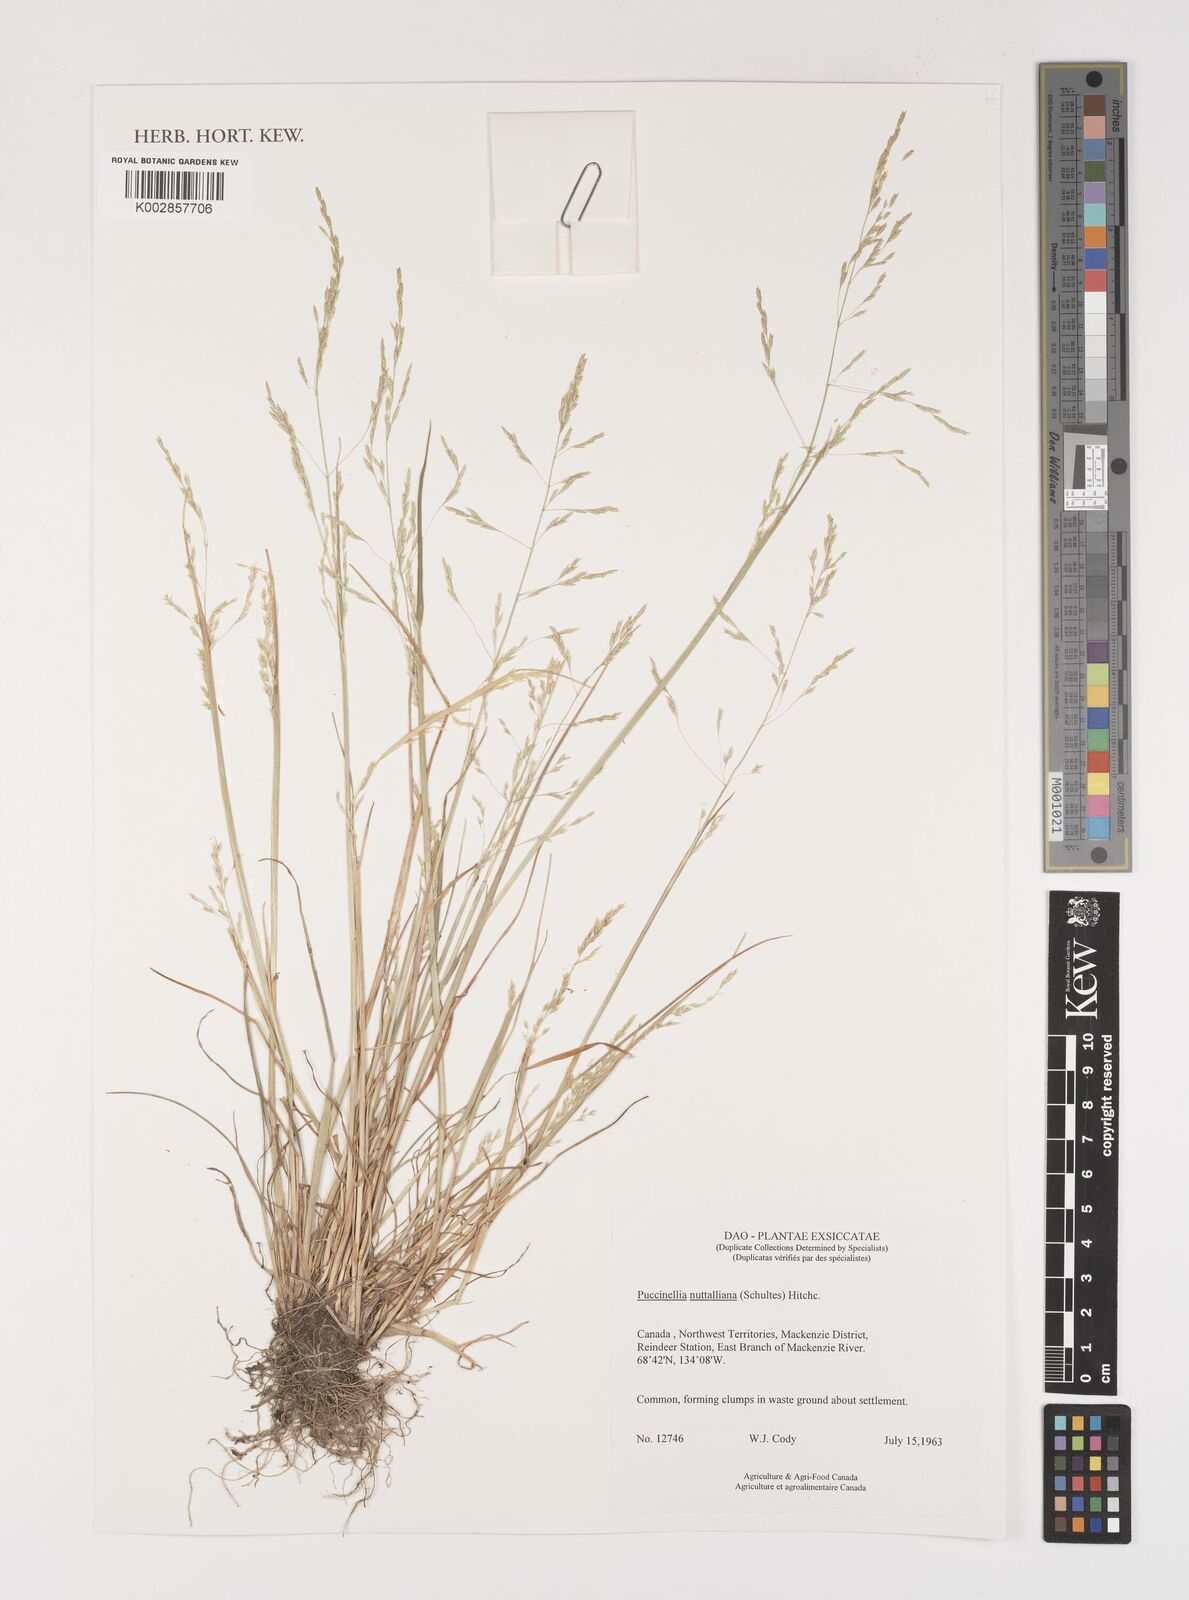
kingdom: Plantae
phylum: Tracheophyta
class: Liliopsida
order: Poales
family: Poaceae
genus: Puccinellia
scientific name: Puccinellia nuttalliana
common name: Nuttall's alkali grass
